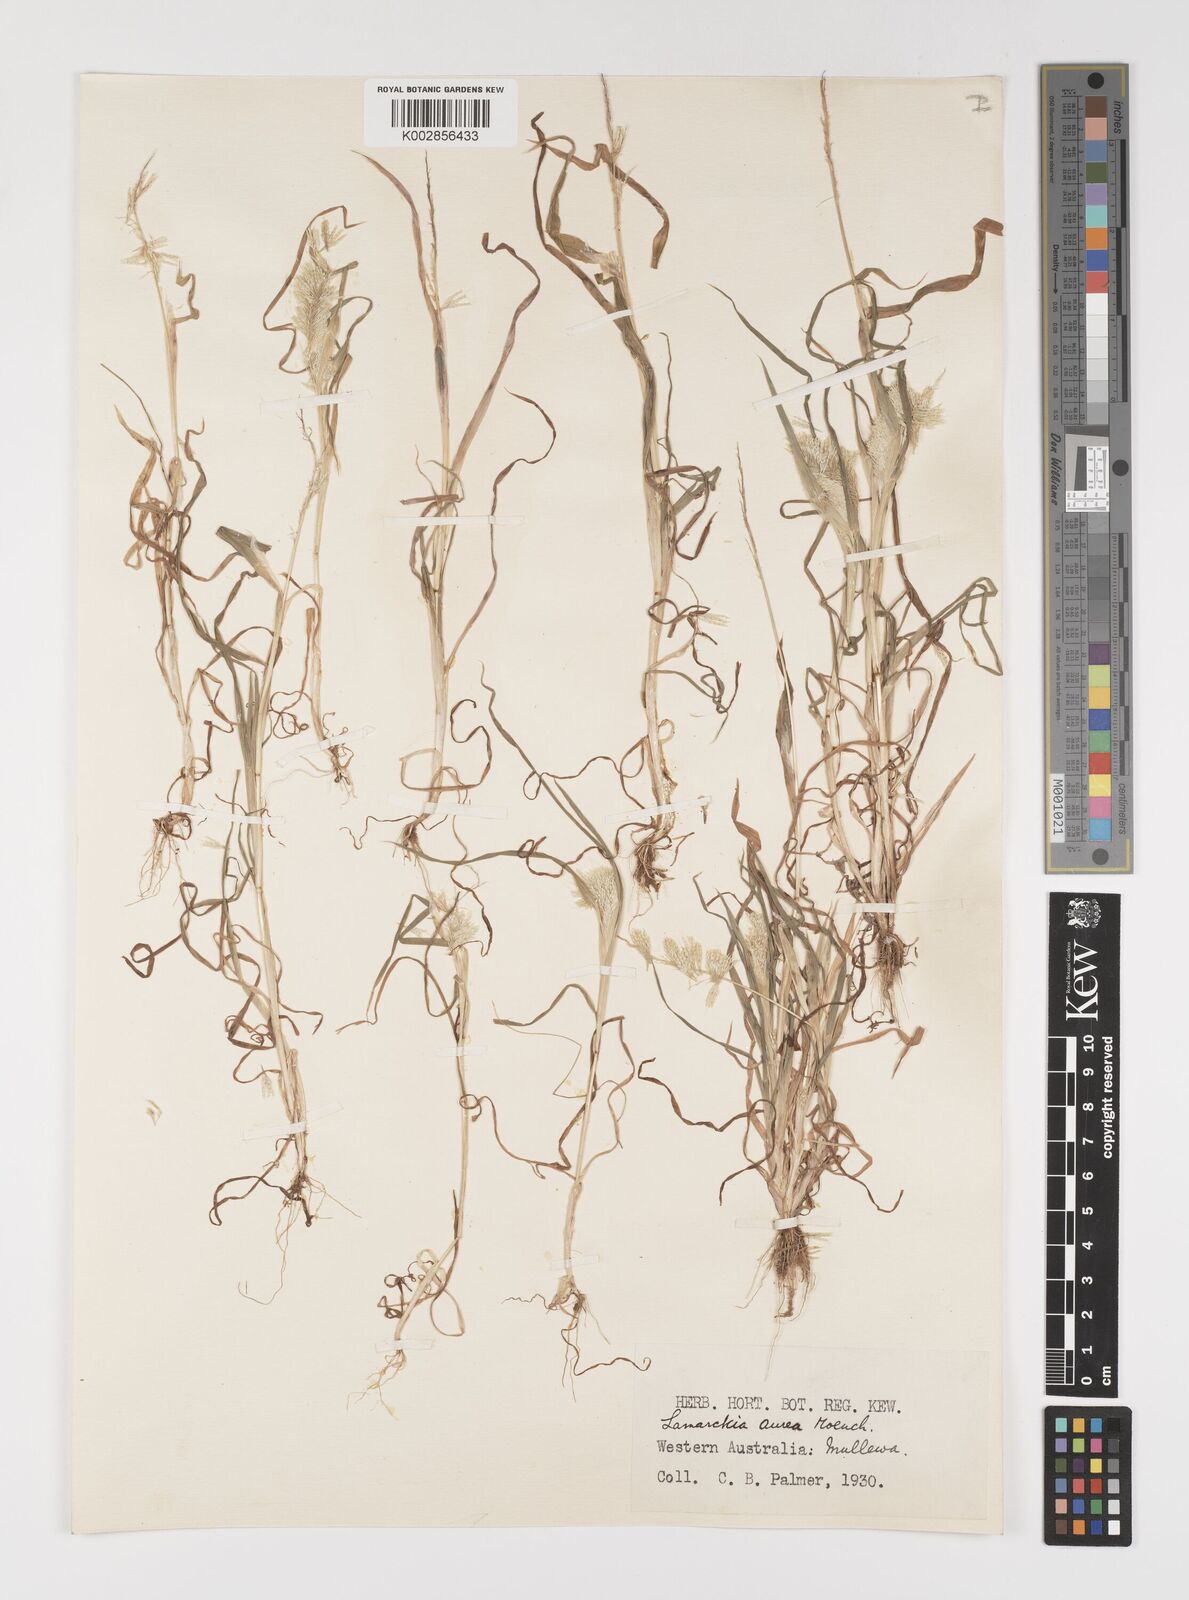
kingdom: Plantae
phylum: Tracheophyta
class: Liliopsida
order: Poales
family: Poaceae
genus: Lamarckia
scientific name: Lamarckia aurea
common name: Golden dog's-tail
